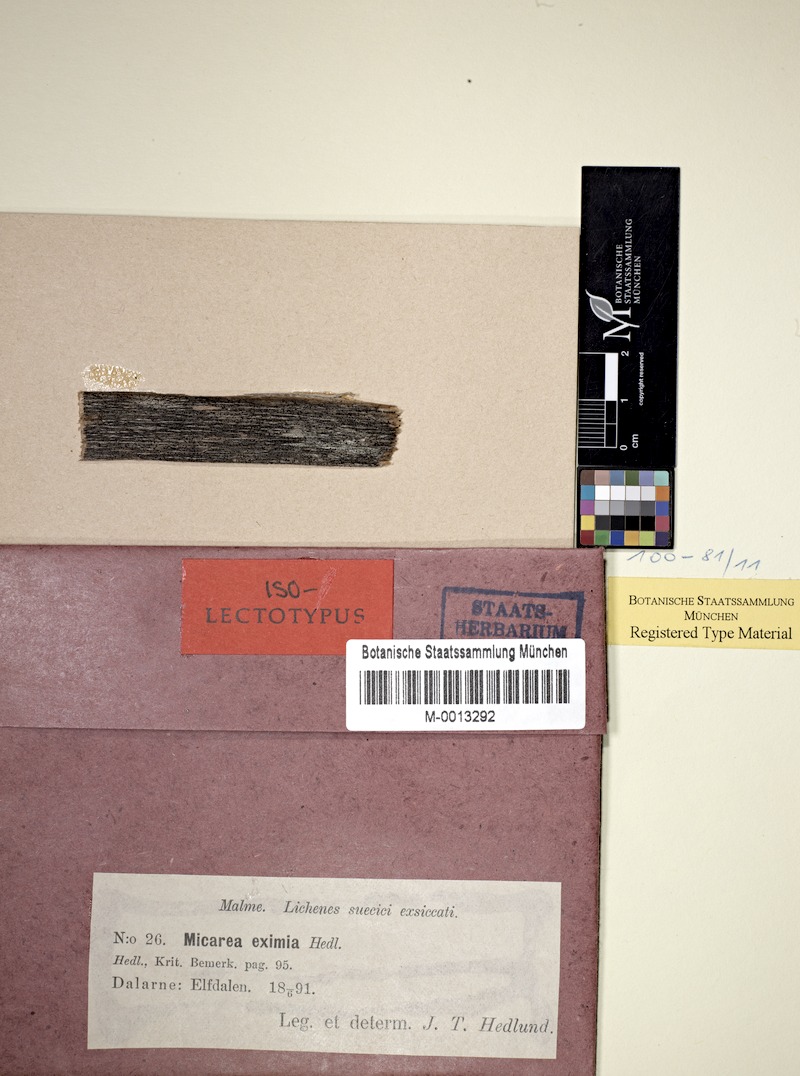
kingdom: Fungi
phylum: Ascomycota
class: Lecanoromycetes
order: Lecanorales
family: Byssolomataceae
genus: Micarea
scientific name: Micarea eximia
